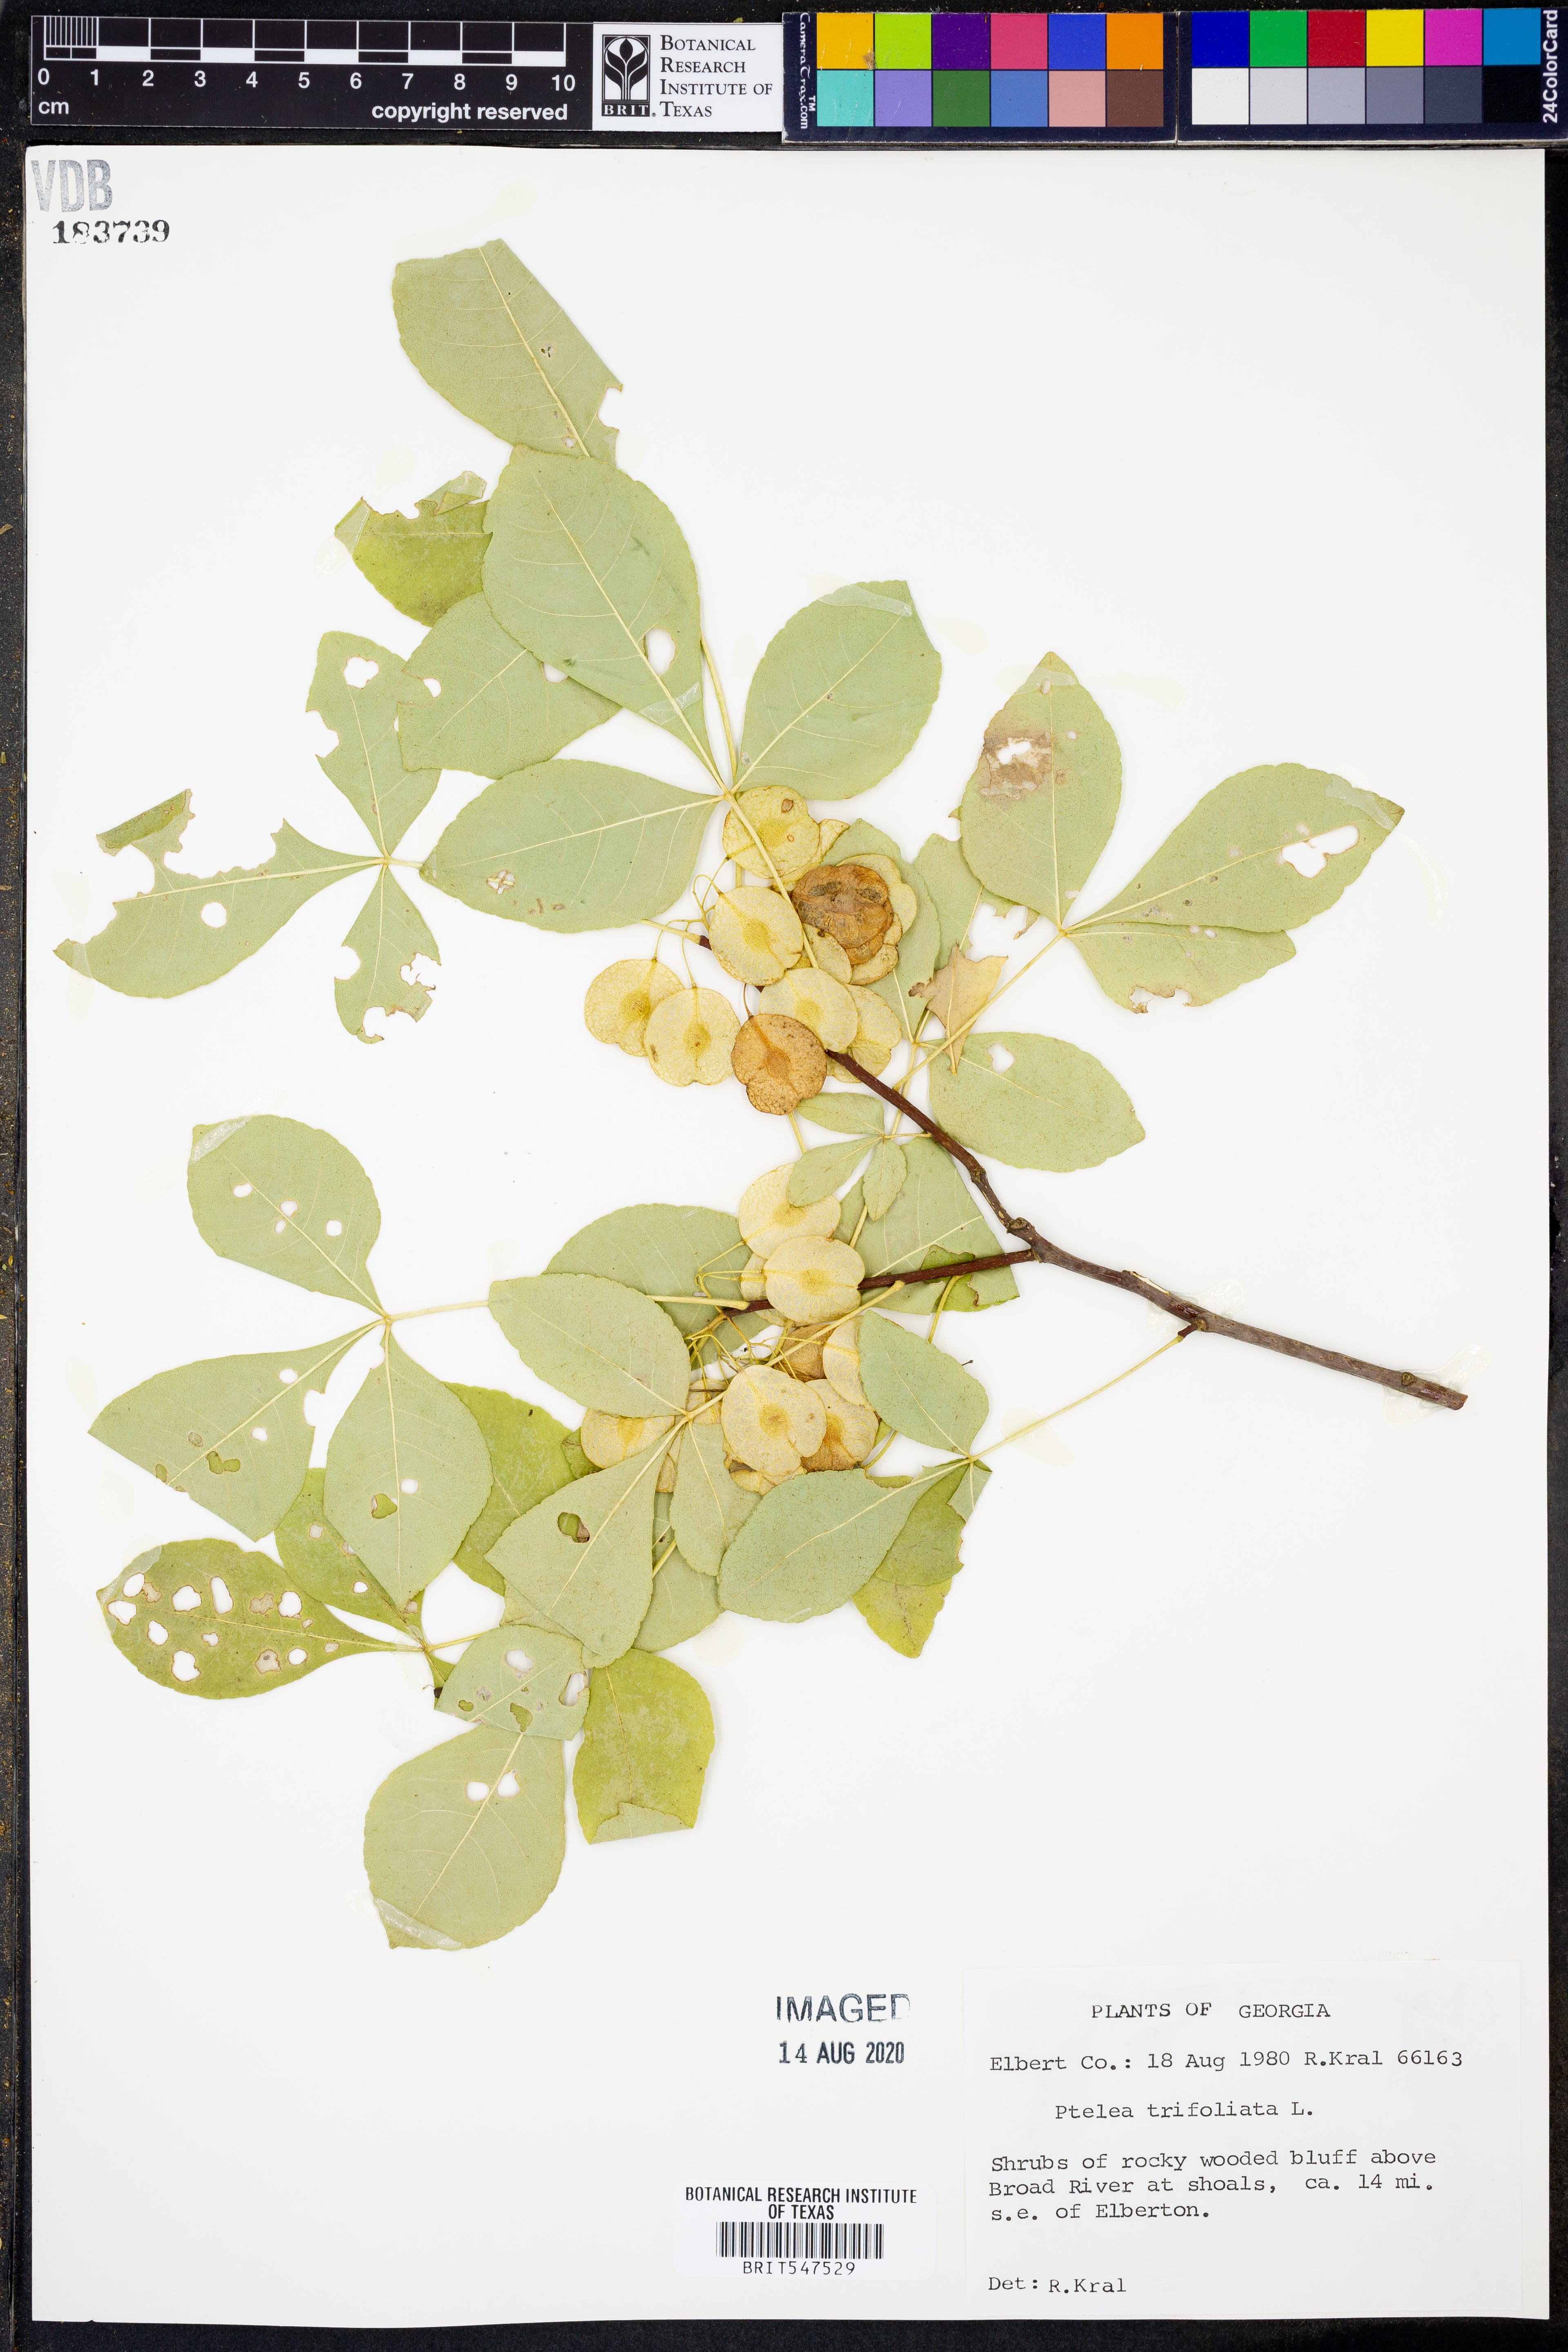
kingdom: Plantae
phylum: Tracheophyta
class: Magnoliopsida
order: Sapindales
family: Rutaceae
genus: Ptelea
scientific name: Ptelea trifoliata
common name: Common hop-tree
